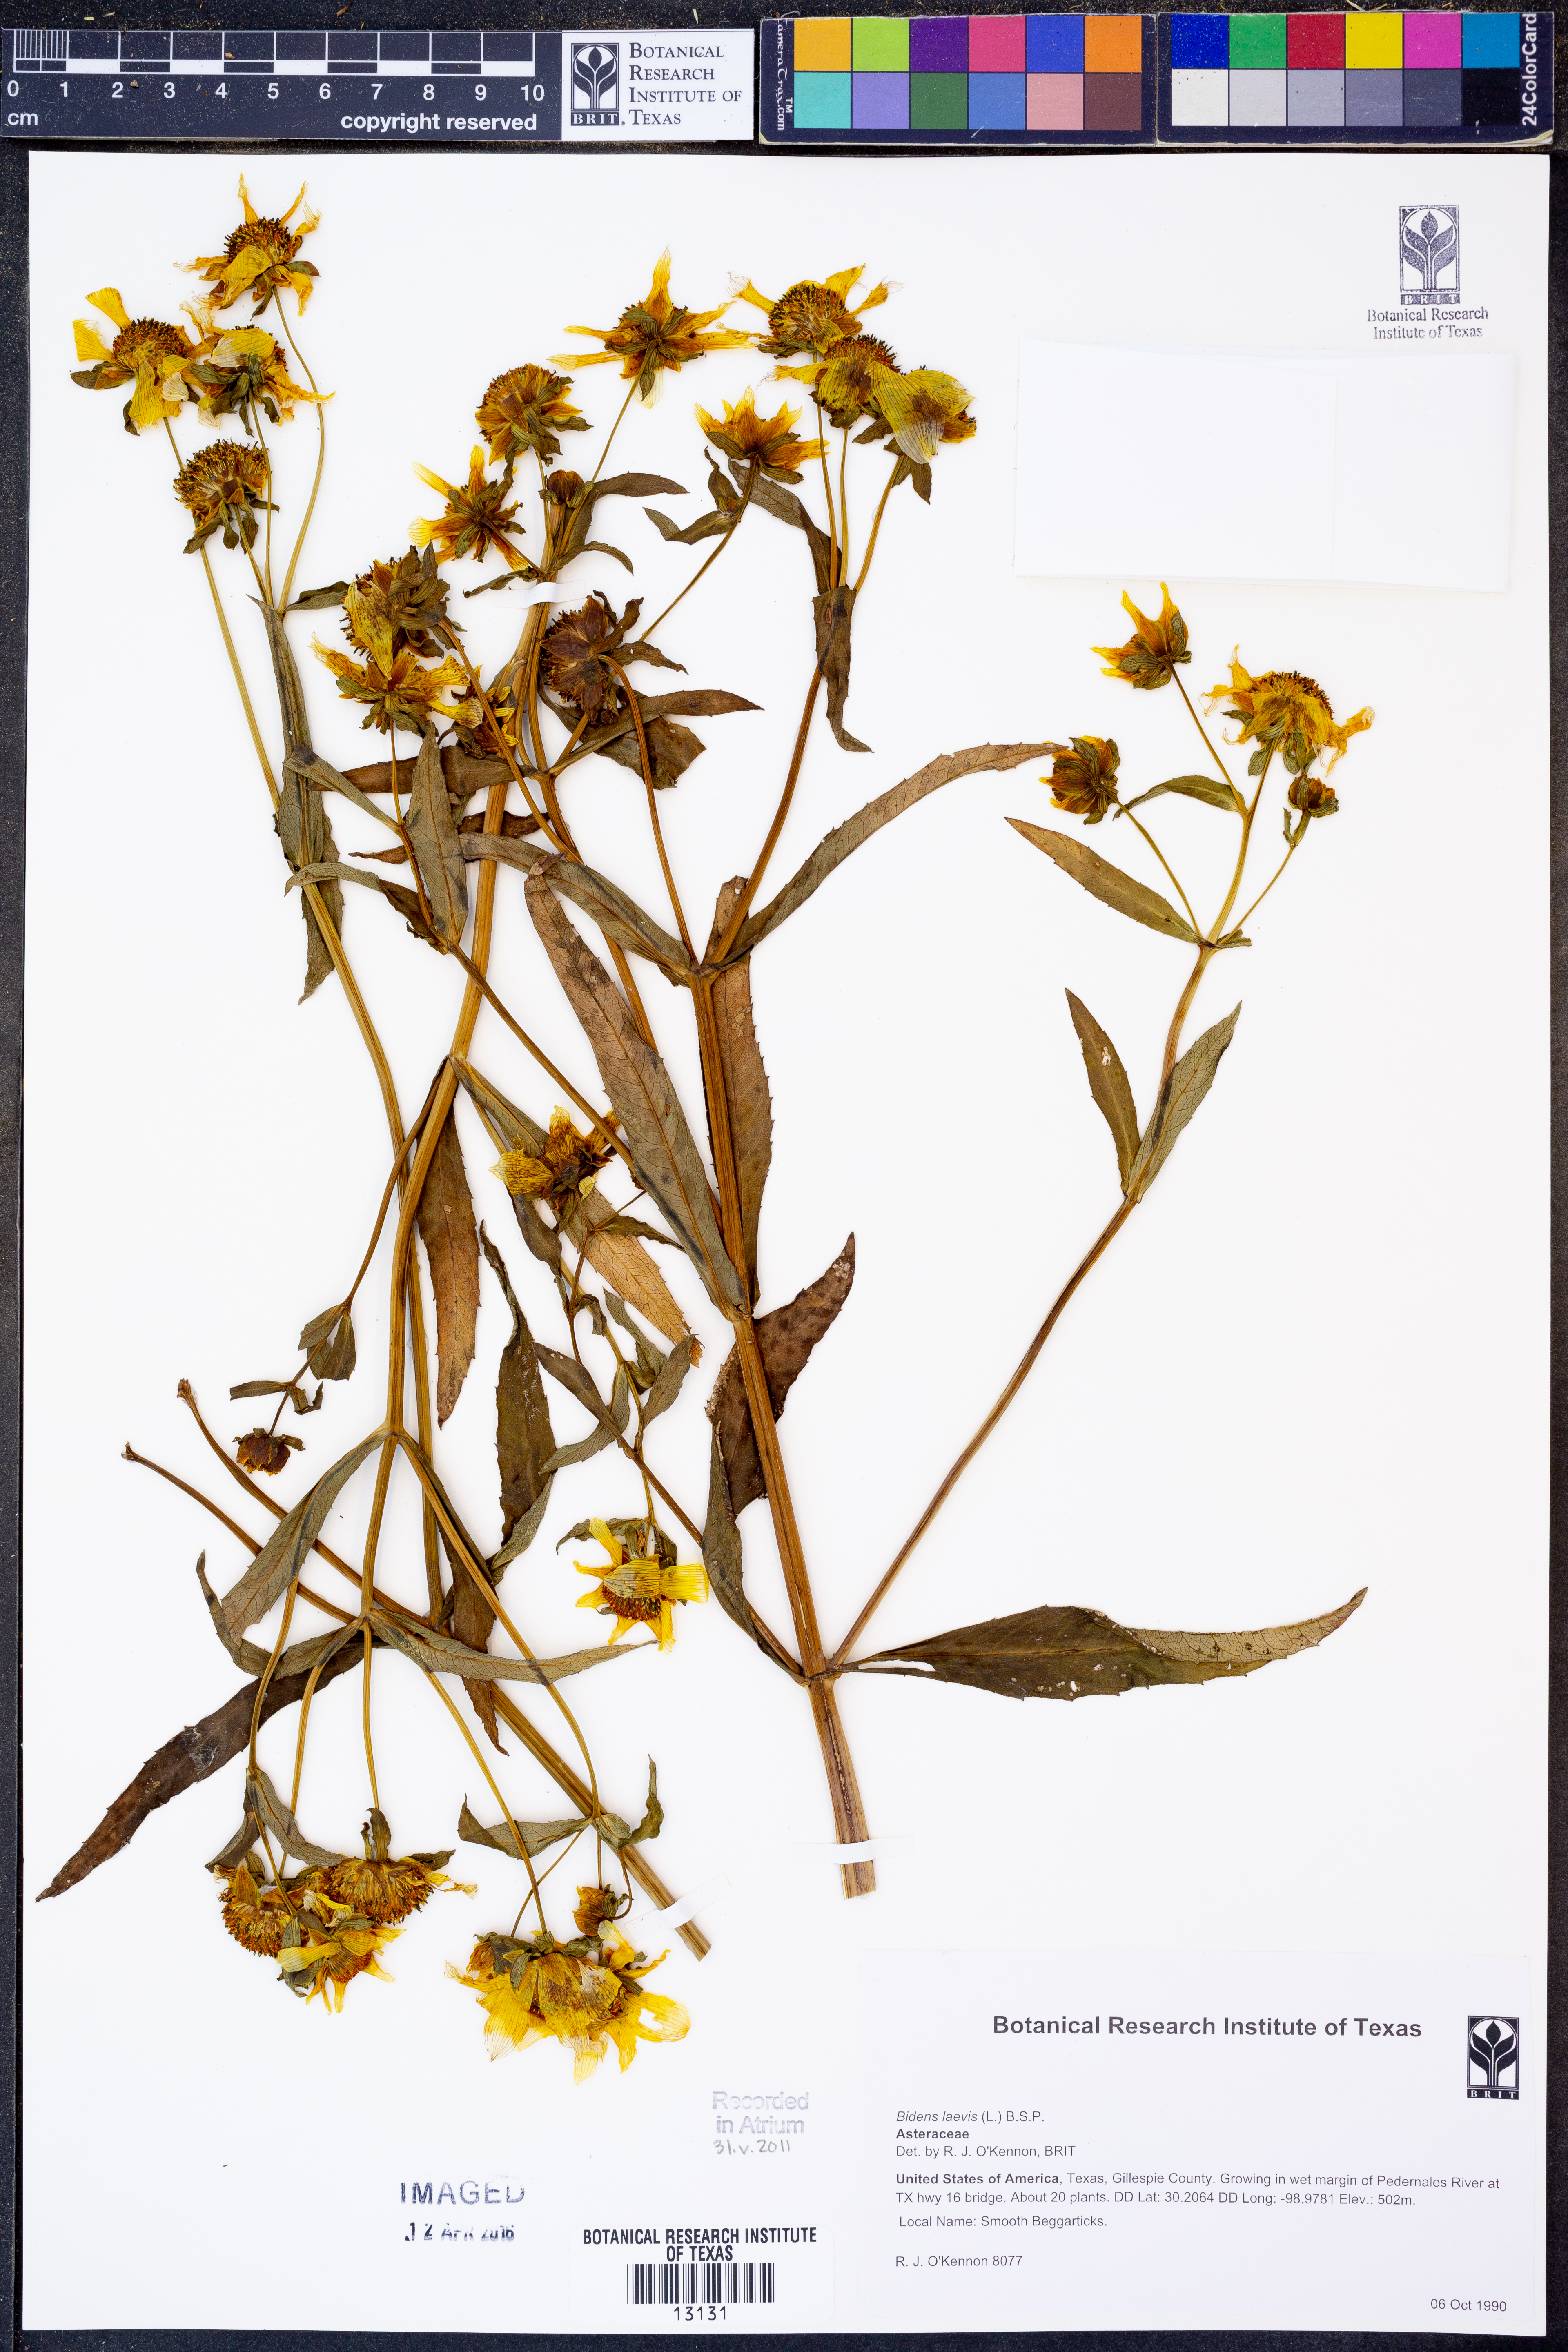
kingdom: Plantae
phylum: Tracheophyta
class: Magnoliopsida
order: Asterales
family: Asteraceae
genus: Bidens
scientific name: Bidens laevis
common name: Larger bur-marigold
